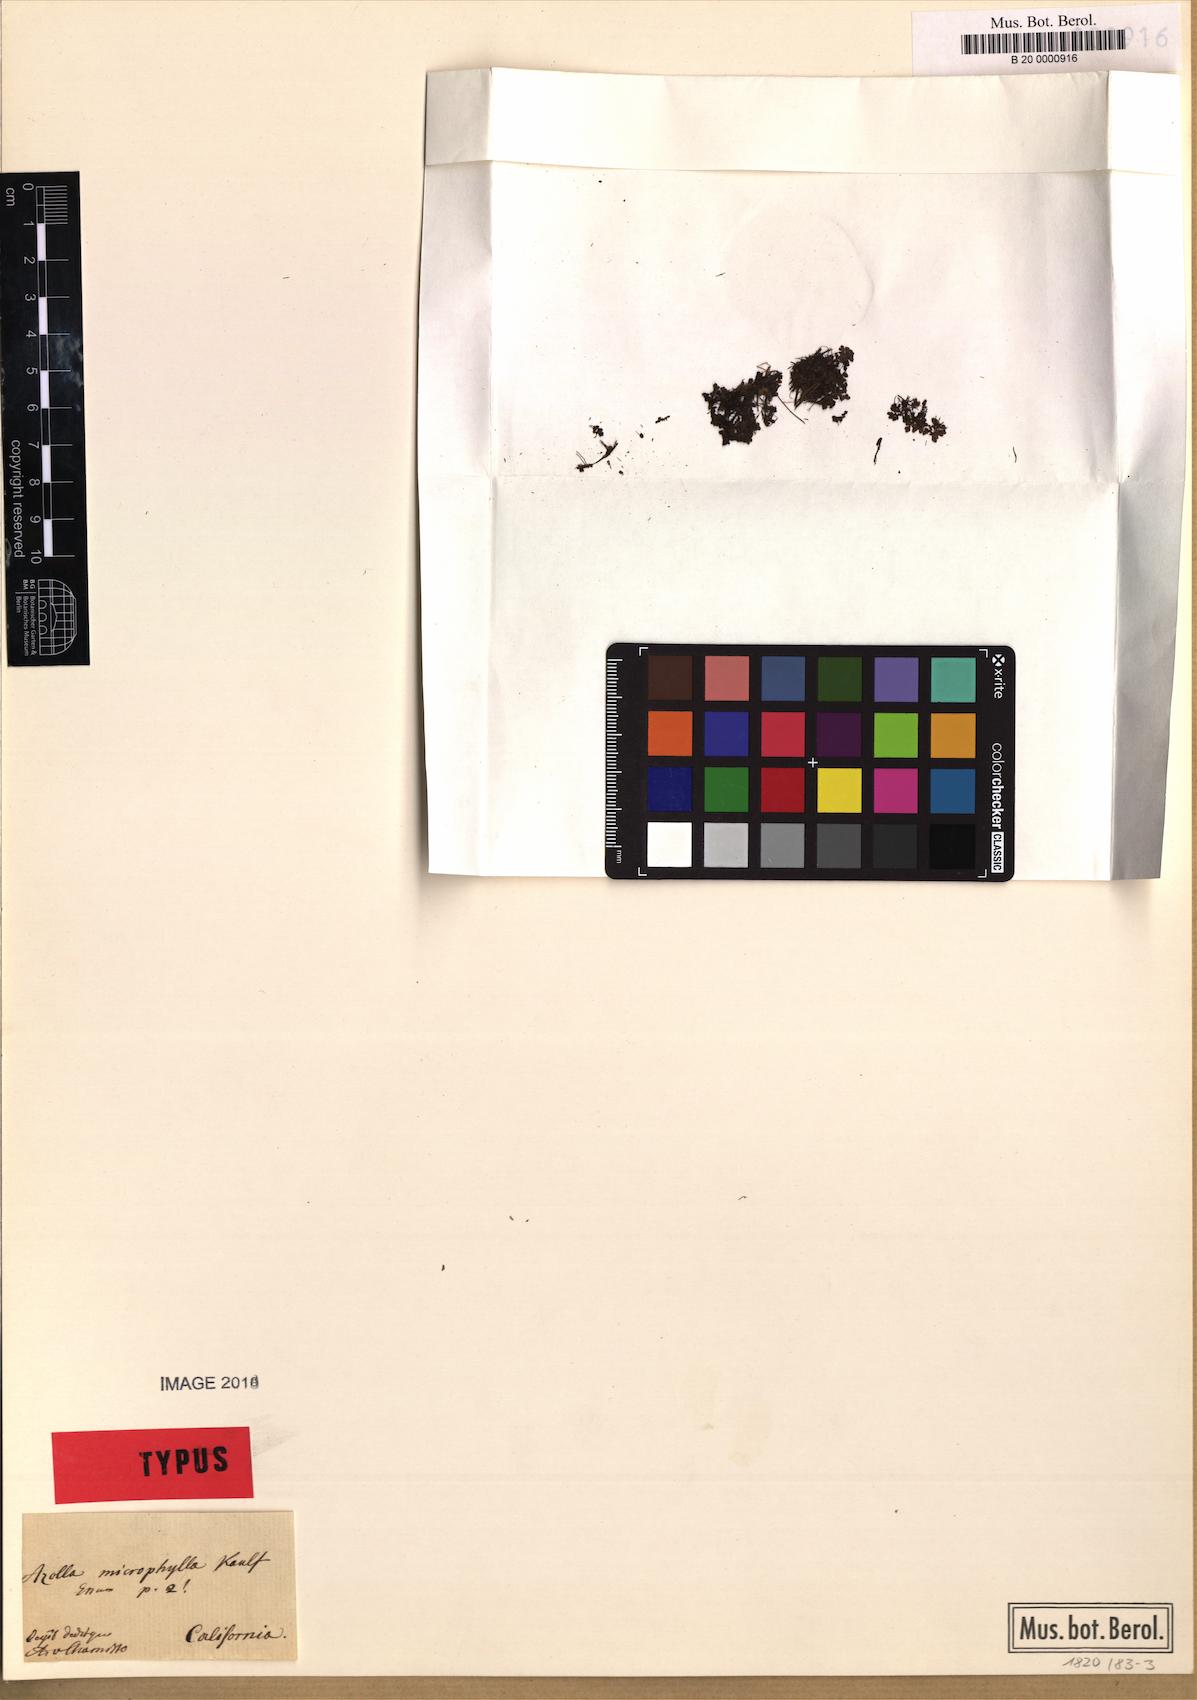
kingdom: Plantae
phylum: Tracheophyta
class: Polypodiopsida
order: Salviniales
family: Salviniaceae
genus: Azolla
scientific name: Azolla cristata
